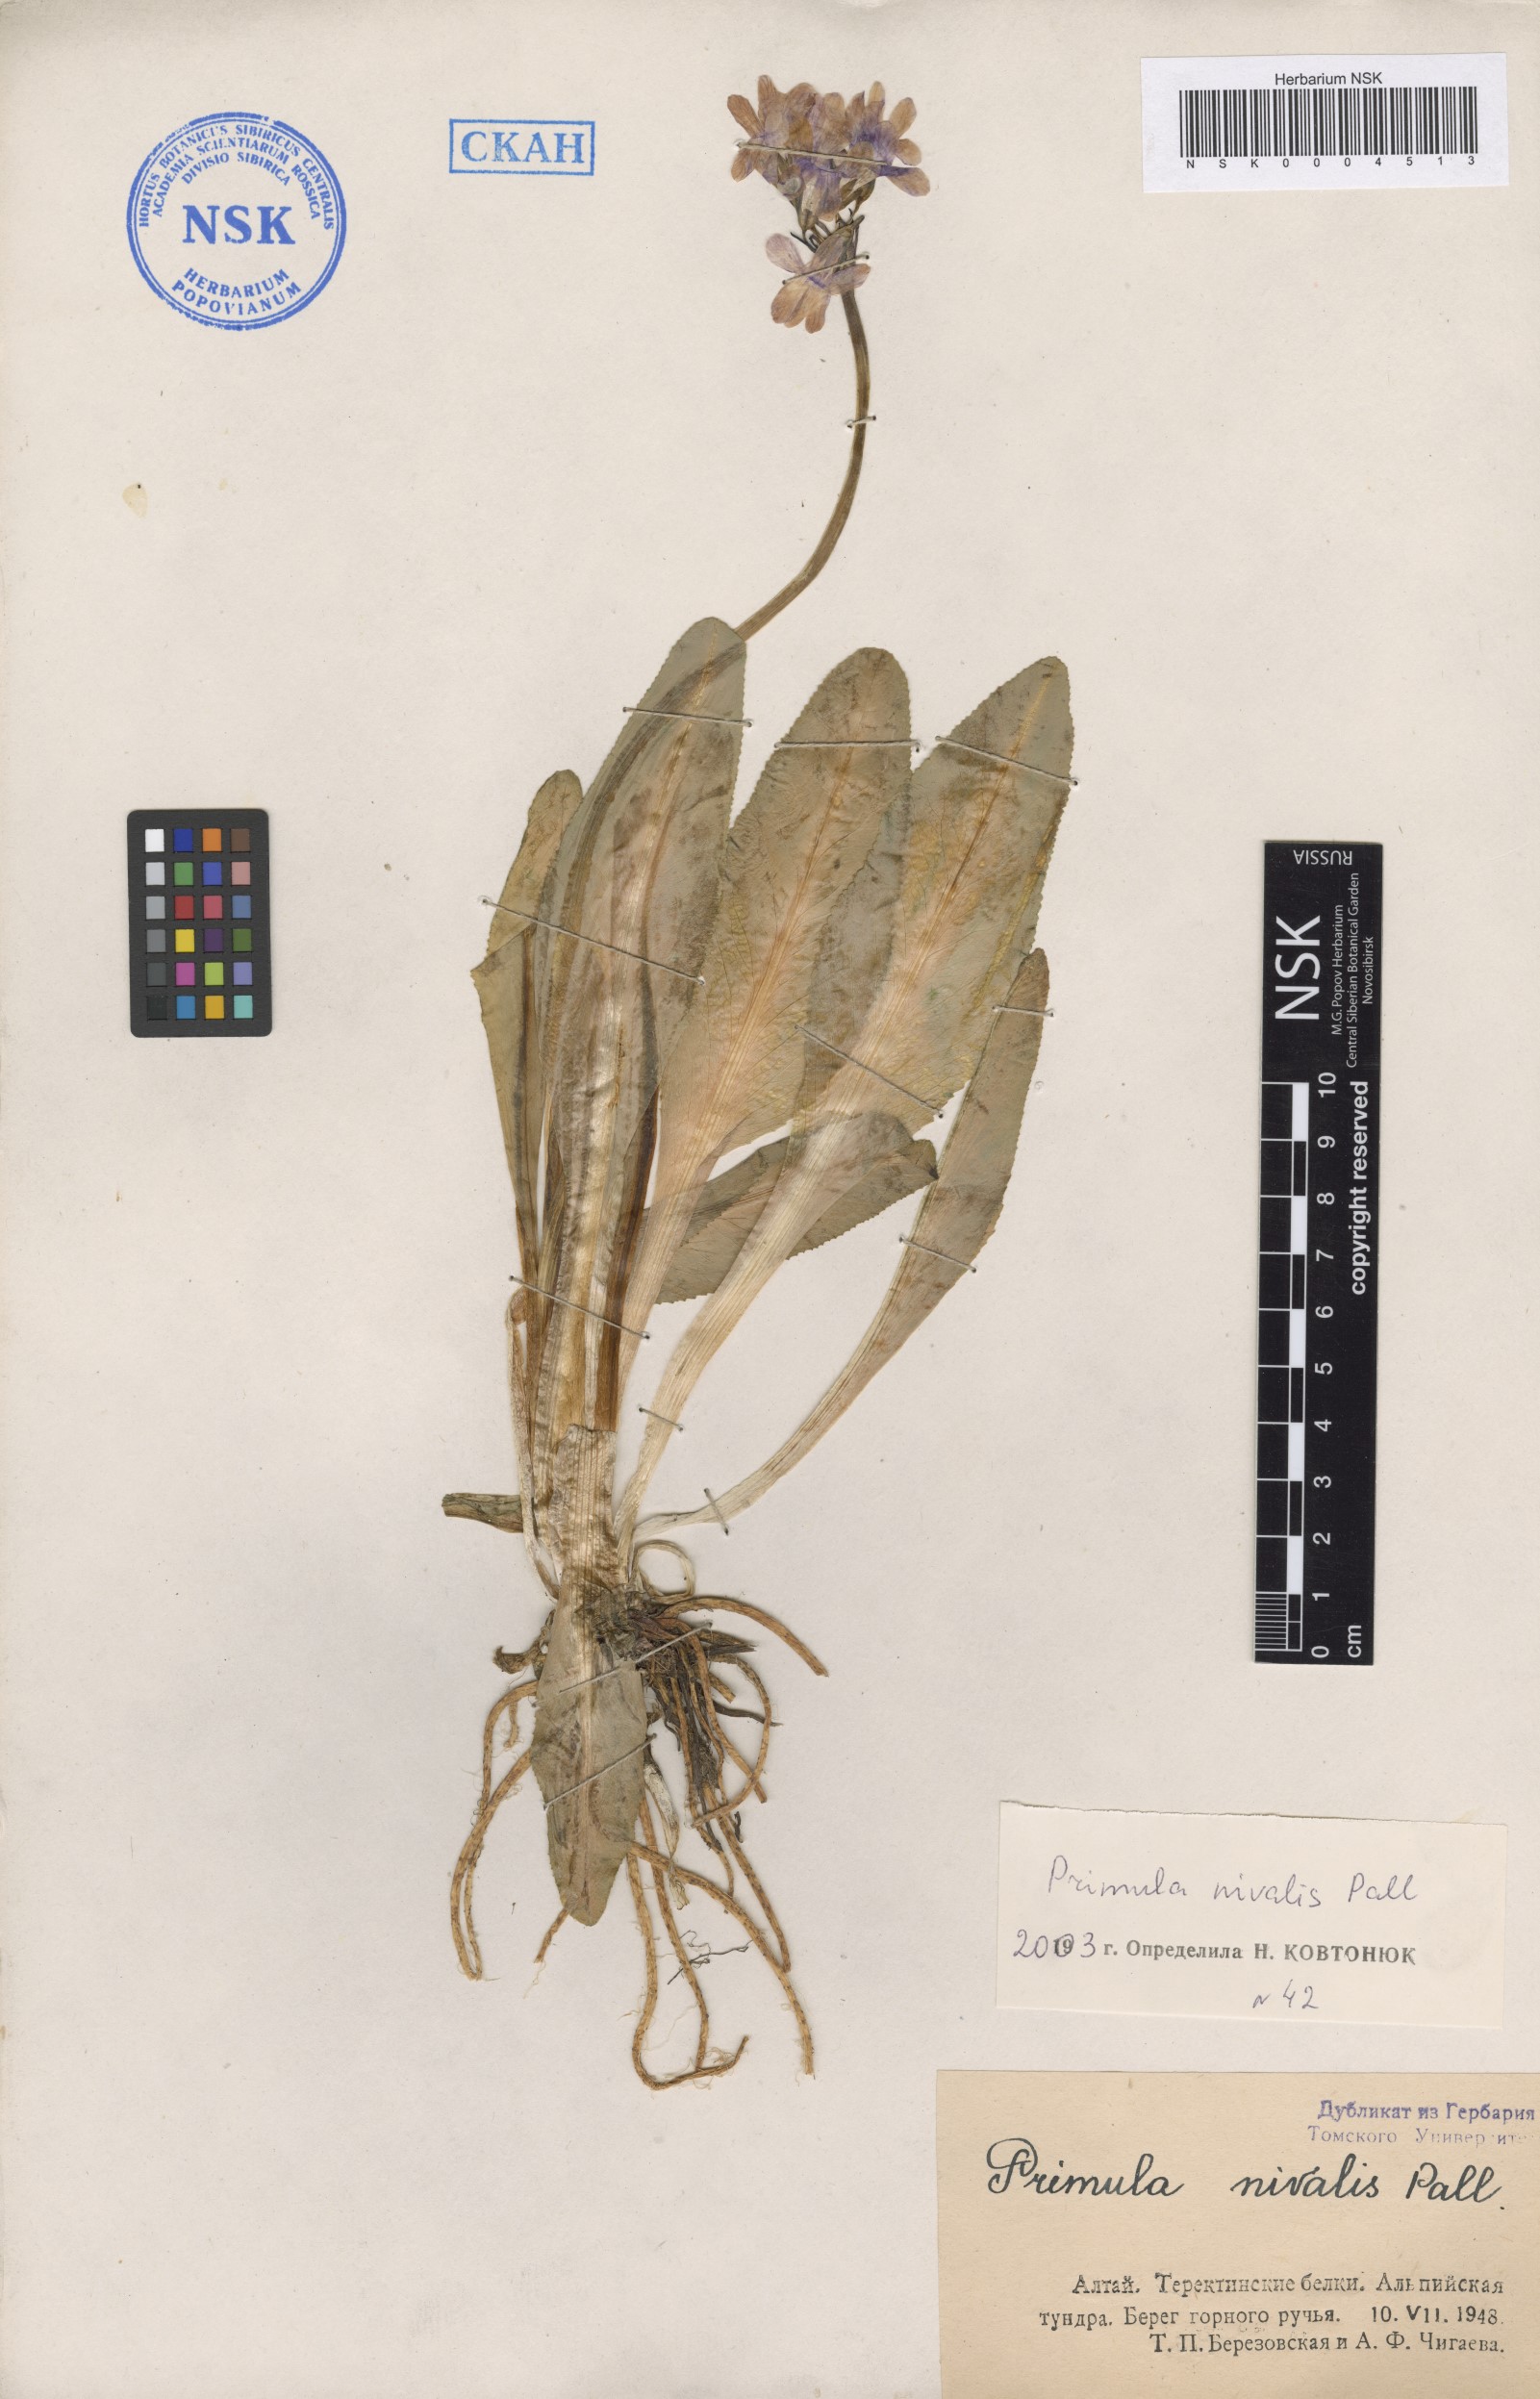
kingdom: Plantae
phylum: Tracheophyta
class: Magnoliopsida
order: Ericales
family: Primulaceae
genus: Primula
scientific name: Primula nivalis
